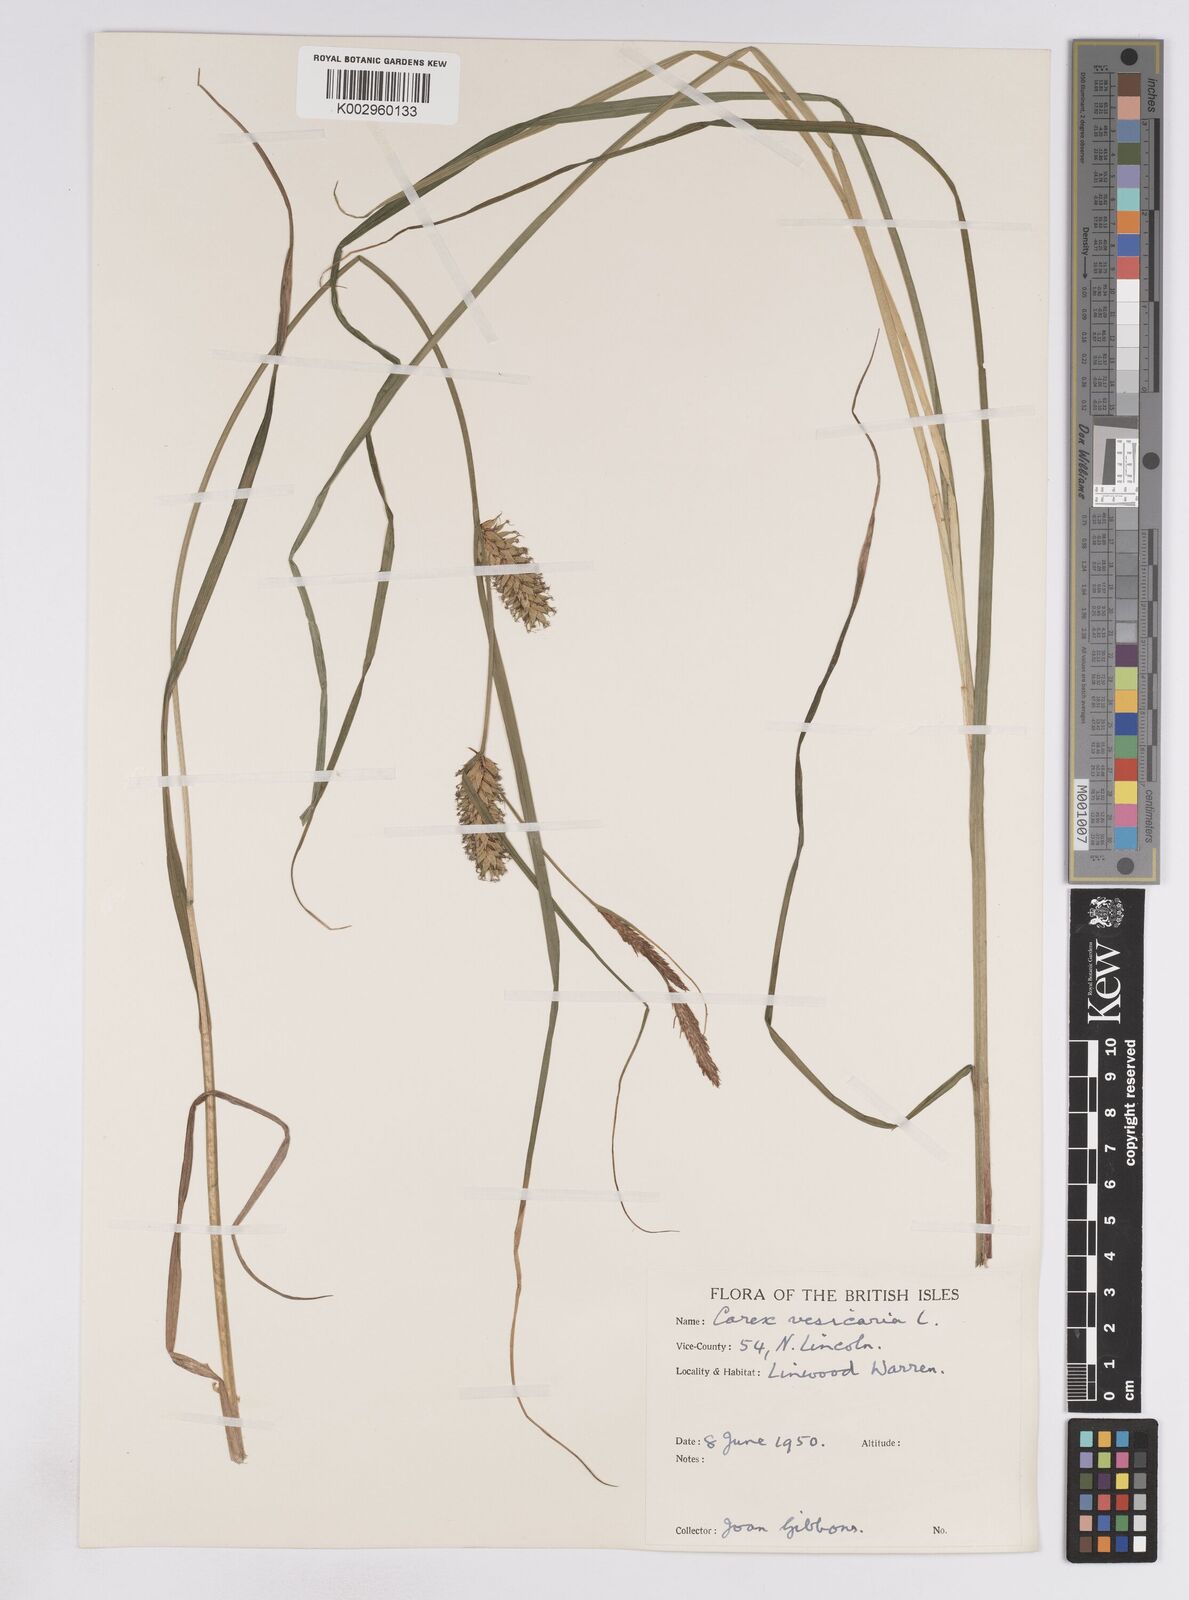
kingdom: Plantae
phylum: Tracheophyta
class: Liliopsida
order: Poales
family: Cyperaceae
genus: Carex
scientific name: Carex vesicaria
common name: Bladder-sedge
